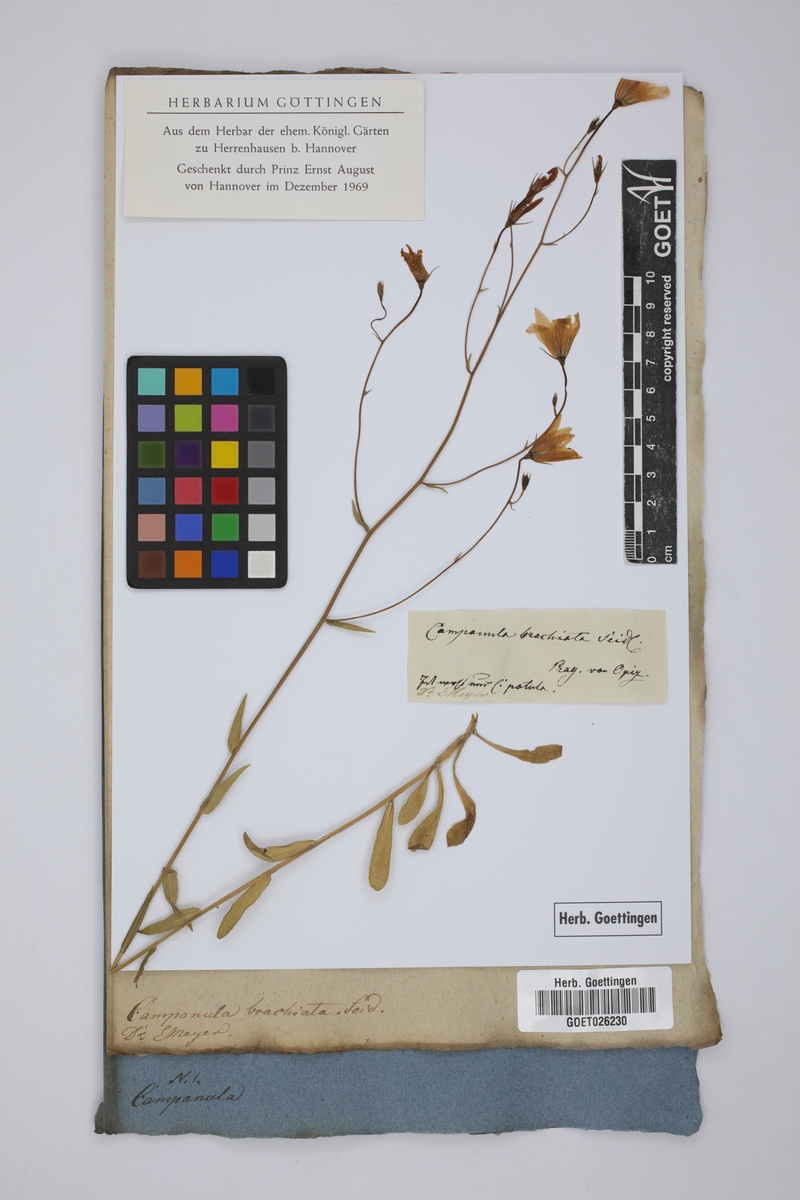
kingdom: Plantae
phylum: Tracheophyta
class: Magnoliopsida
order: Asterales
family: Campanulaceae
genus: Campanula
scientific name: Campanula patula
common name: Spreading bellflower
